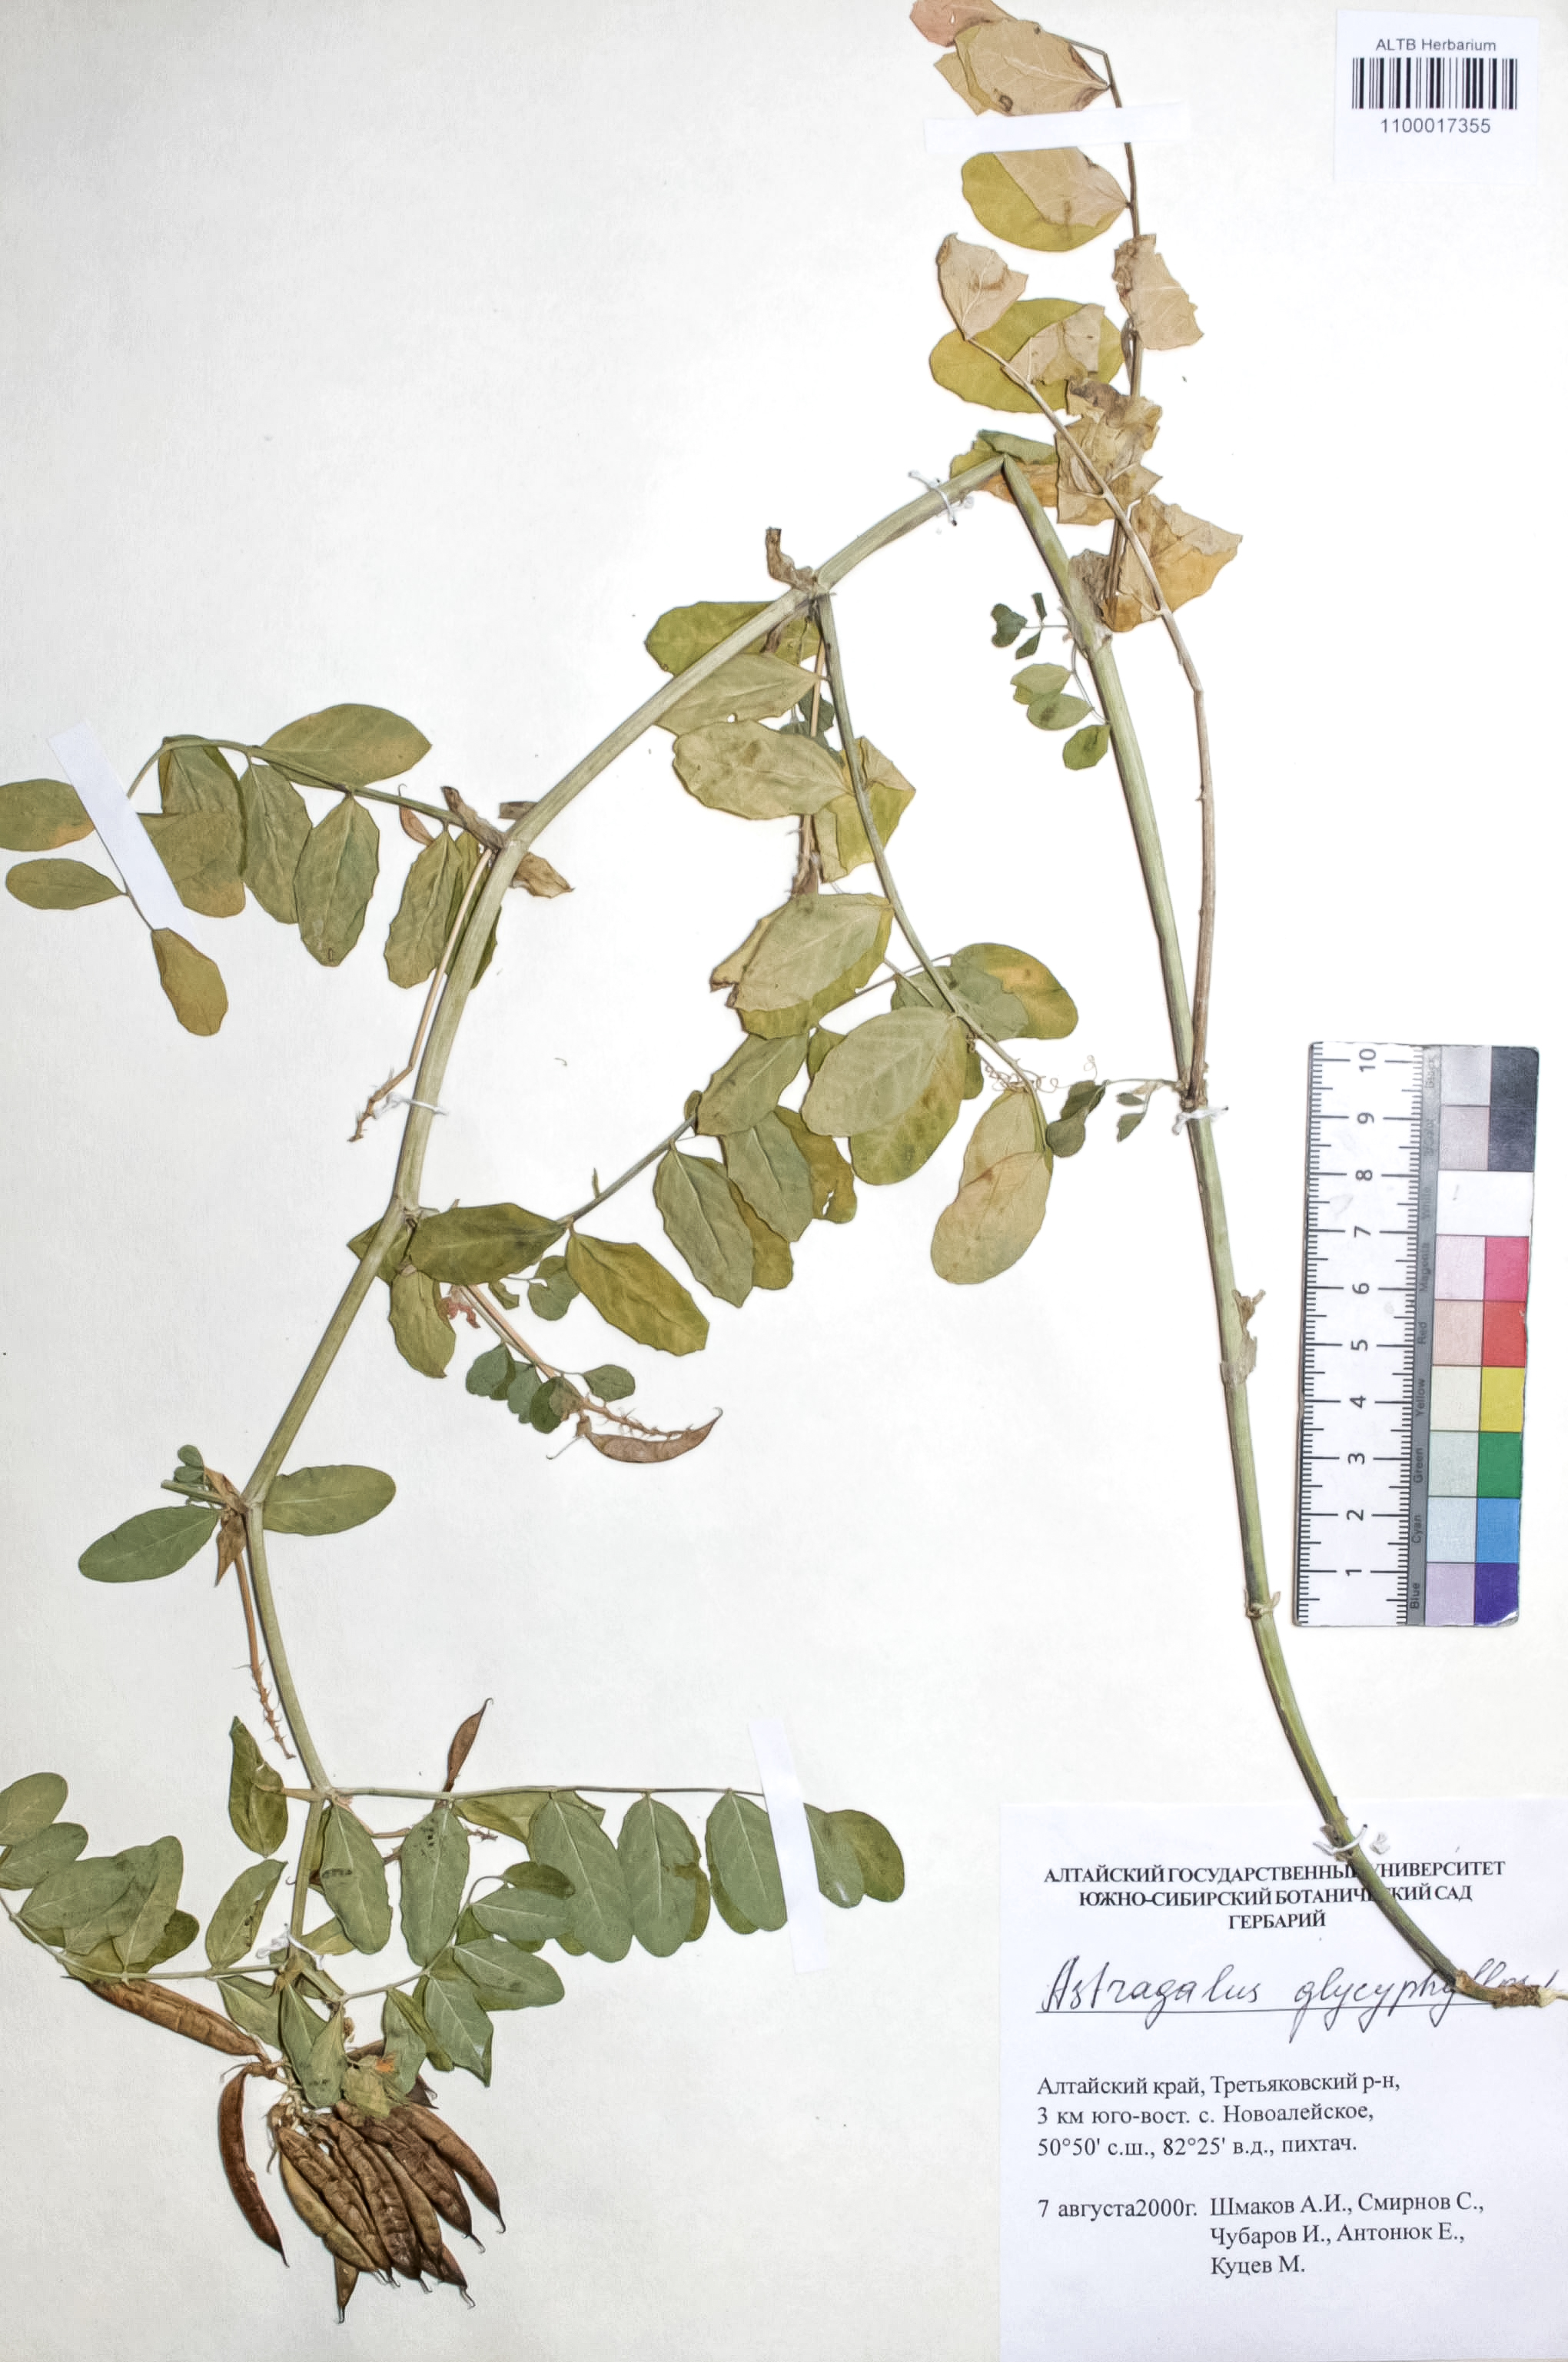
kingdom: Plantae
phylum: Tracheophyta
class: Magnoliopsida
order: Fabales
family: Fabaceae
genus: Astragalus
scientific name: Astragalus glycyphyllos
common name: Wild liquorice
